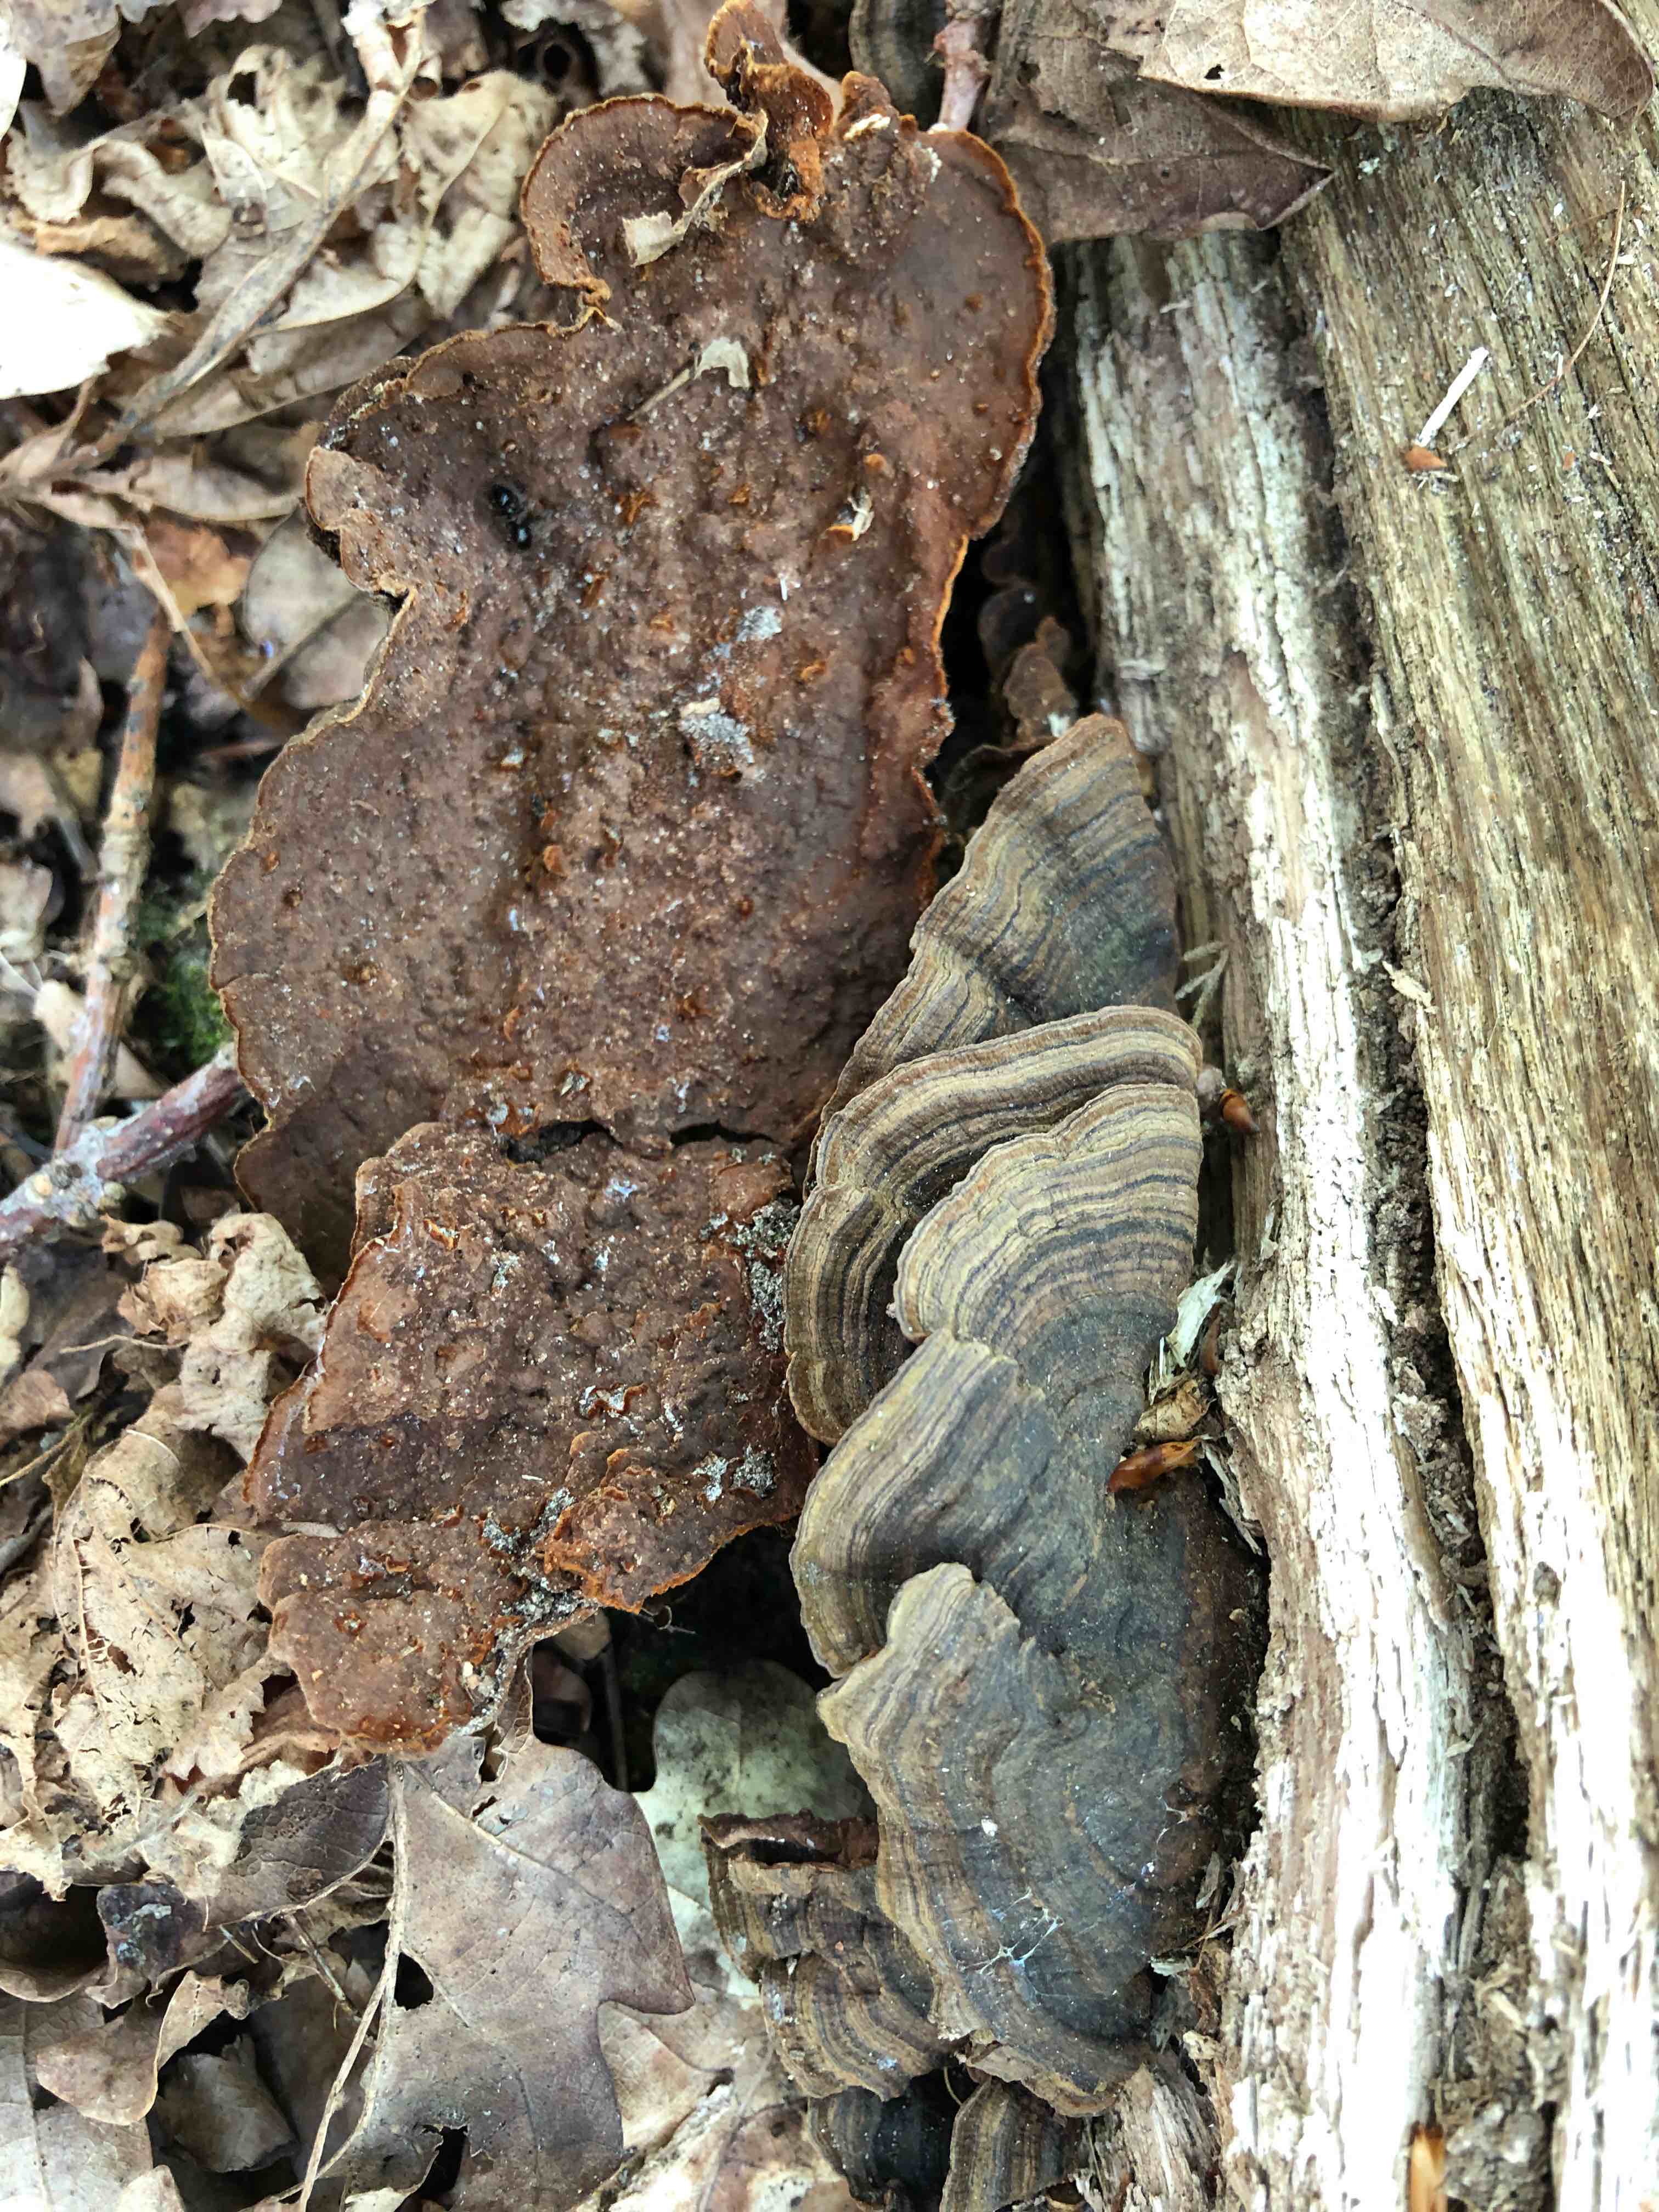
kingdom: Fungi
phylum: Basidiomycota
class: Agaricomycetes
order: Hymenochaetales
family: Hymenochaetaceae
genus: Hymenochaete
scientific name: Hymenochaete rubiginosa
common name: stiv ruslædersvamp
